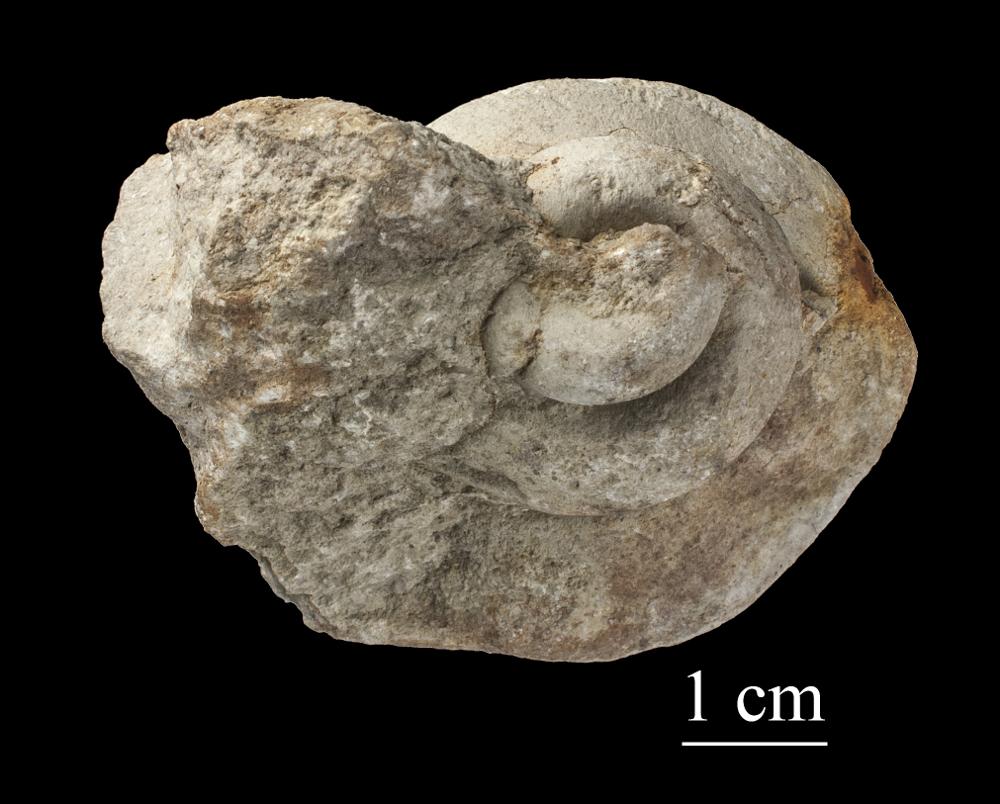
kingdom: Animalia
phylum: Mollusca
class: Gastropoda
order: Pleurotomariida
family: Phymatopleuridae
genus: Worthenia
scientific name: Worthenia
